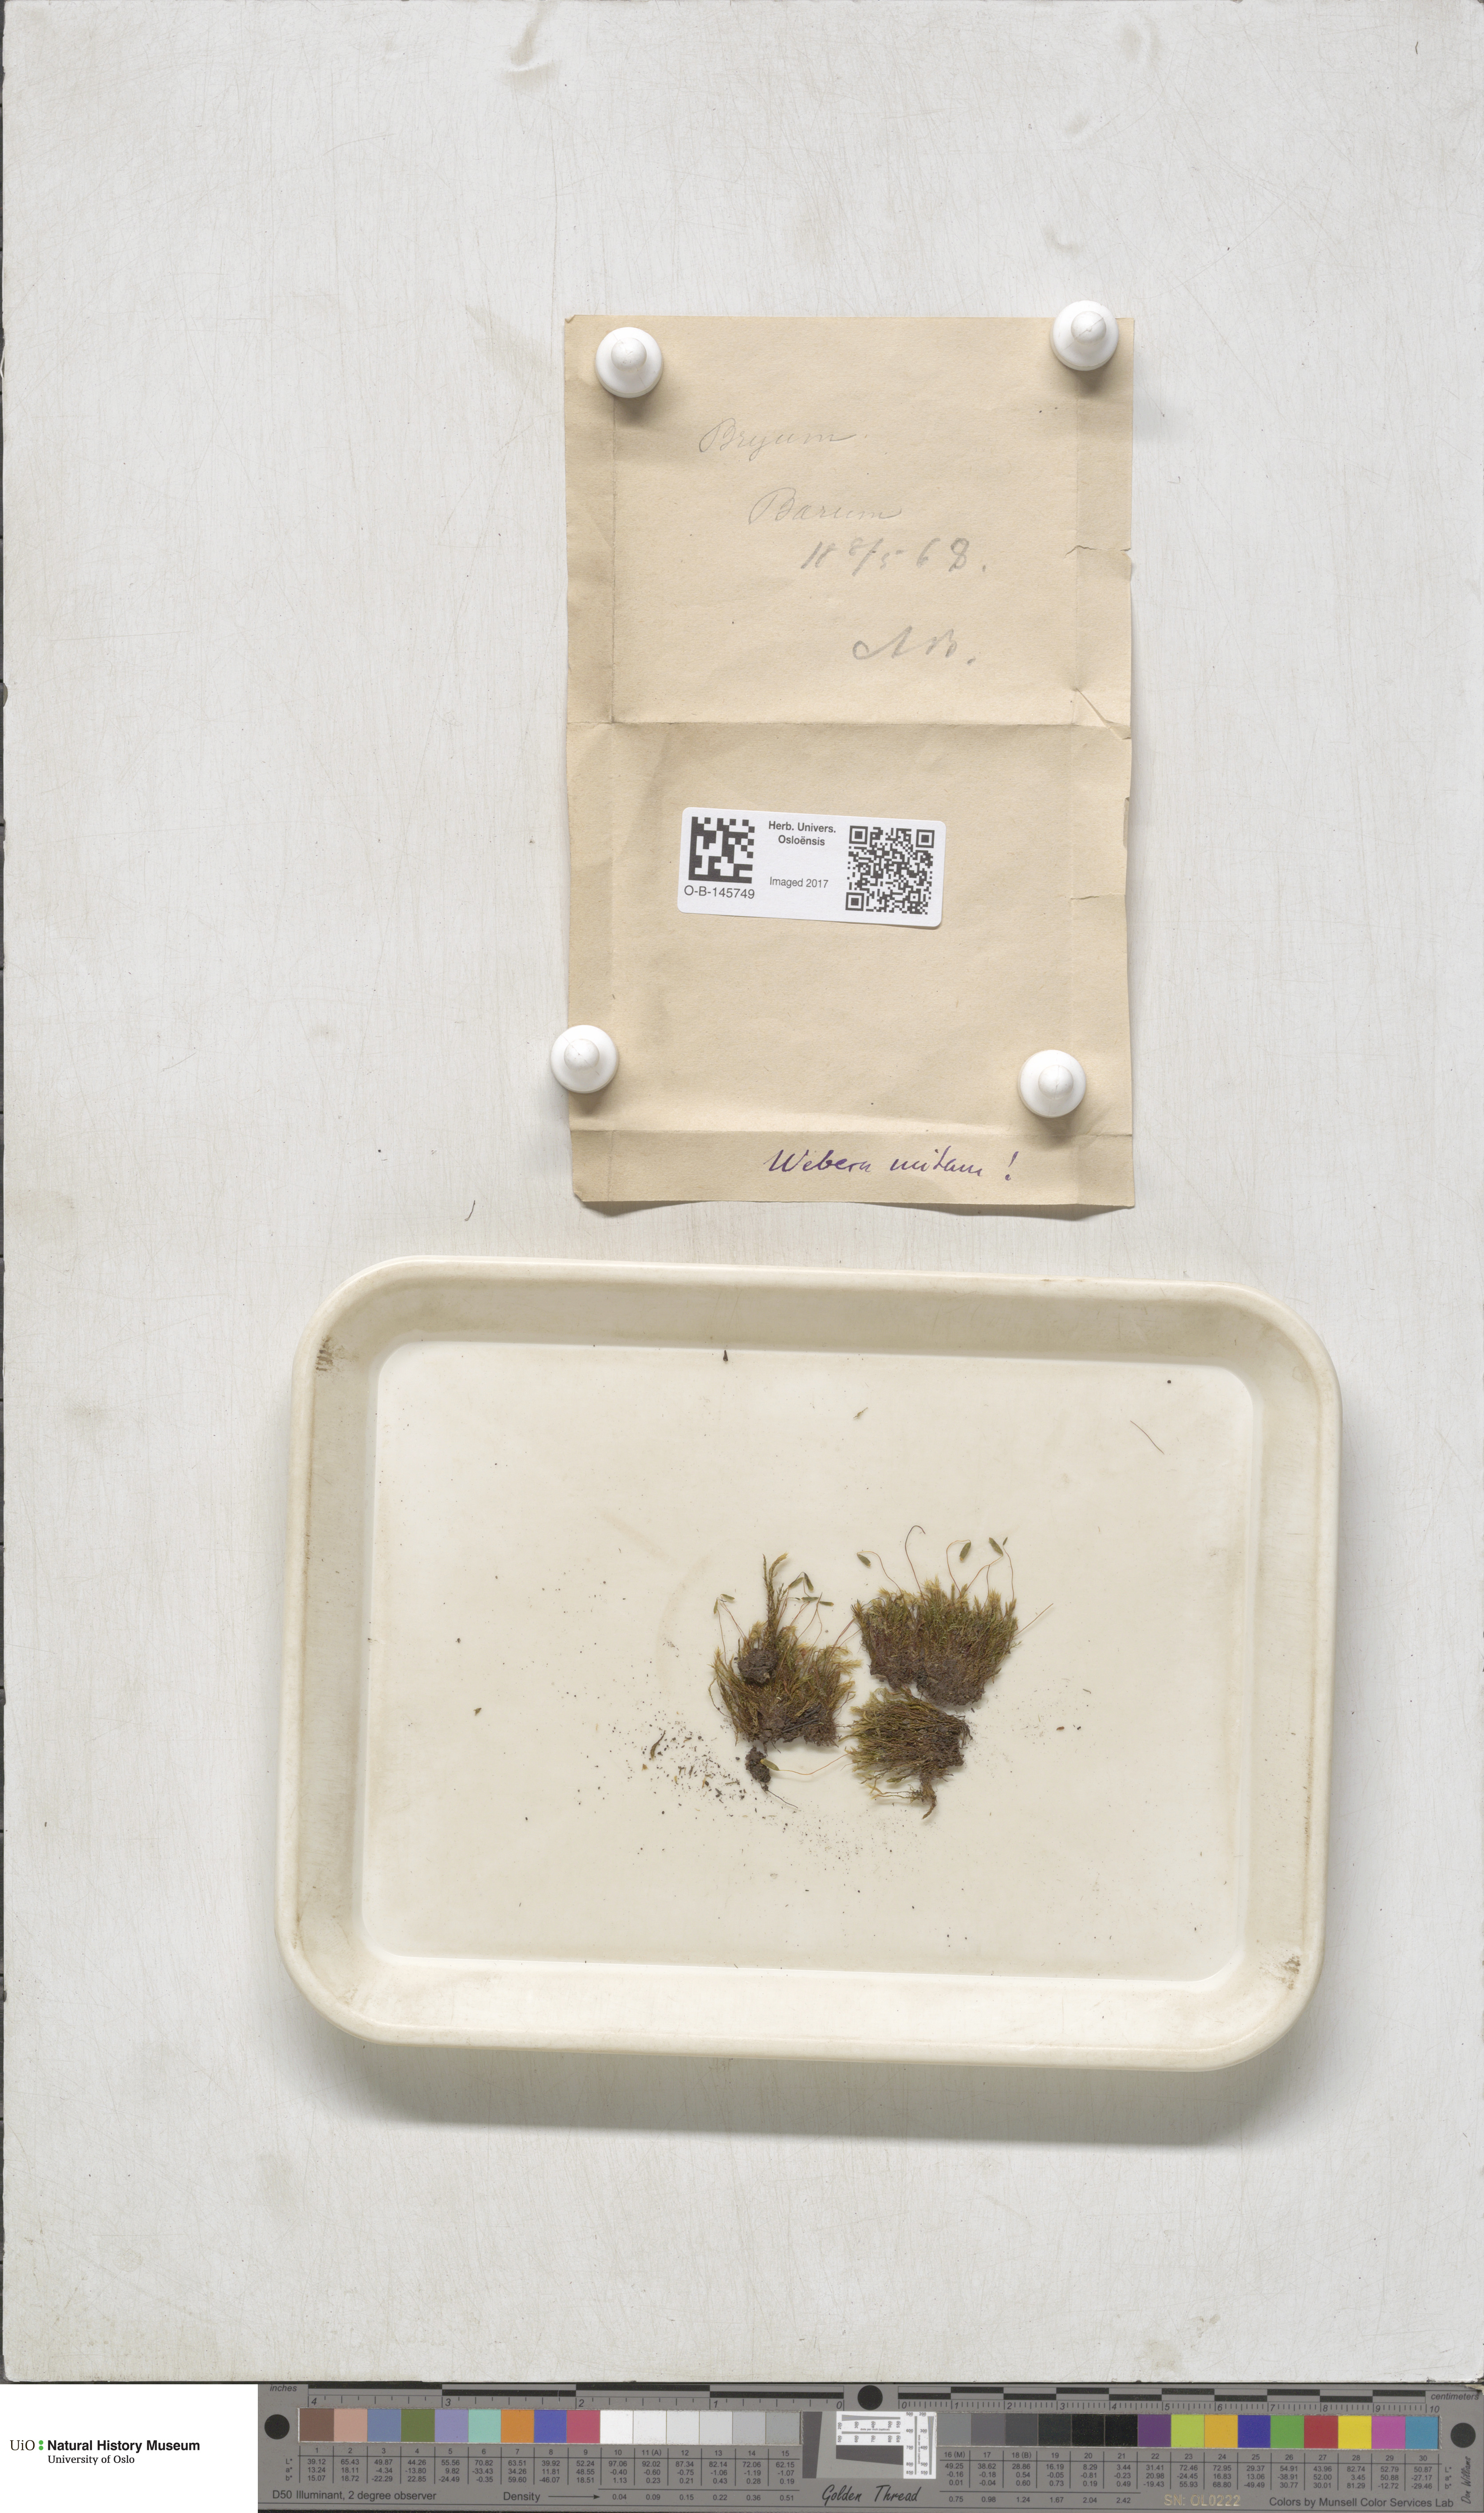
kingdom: Plantae
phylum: Bryophyta
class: Bryopsida
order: Bryales
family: Mniaceae
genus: Pohlia
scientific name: Pohlia nutans
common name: Nodding thread-moss
